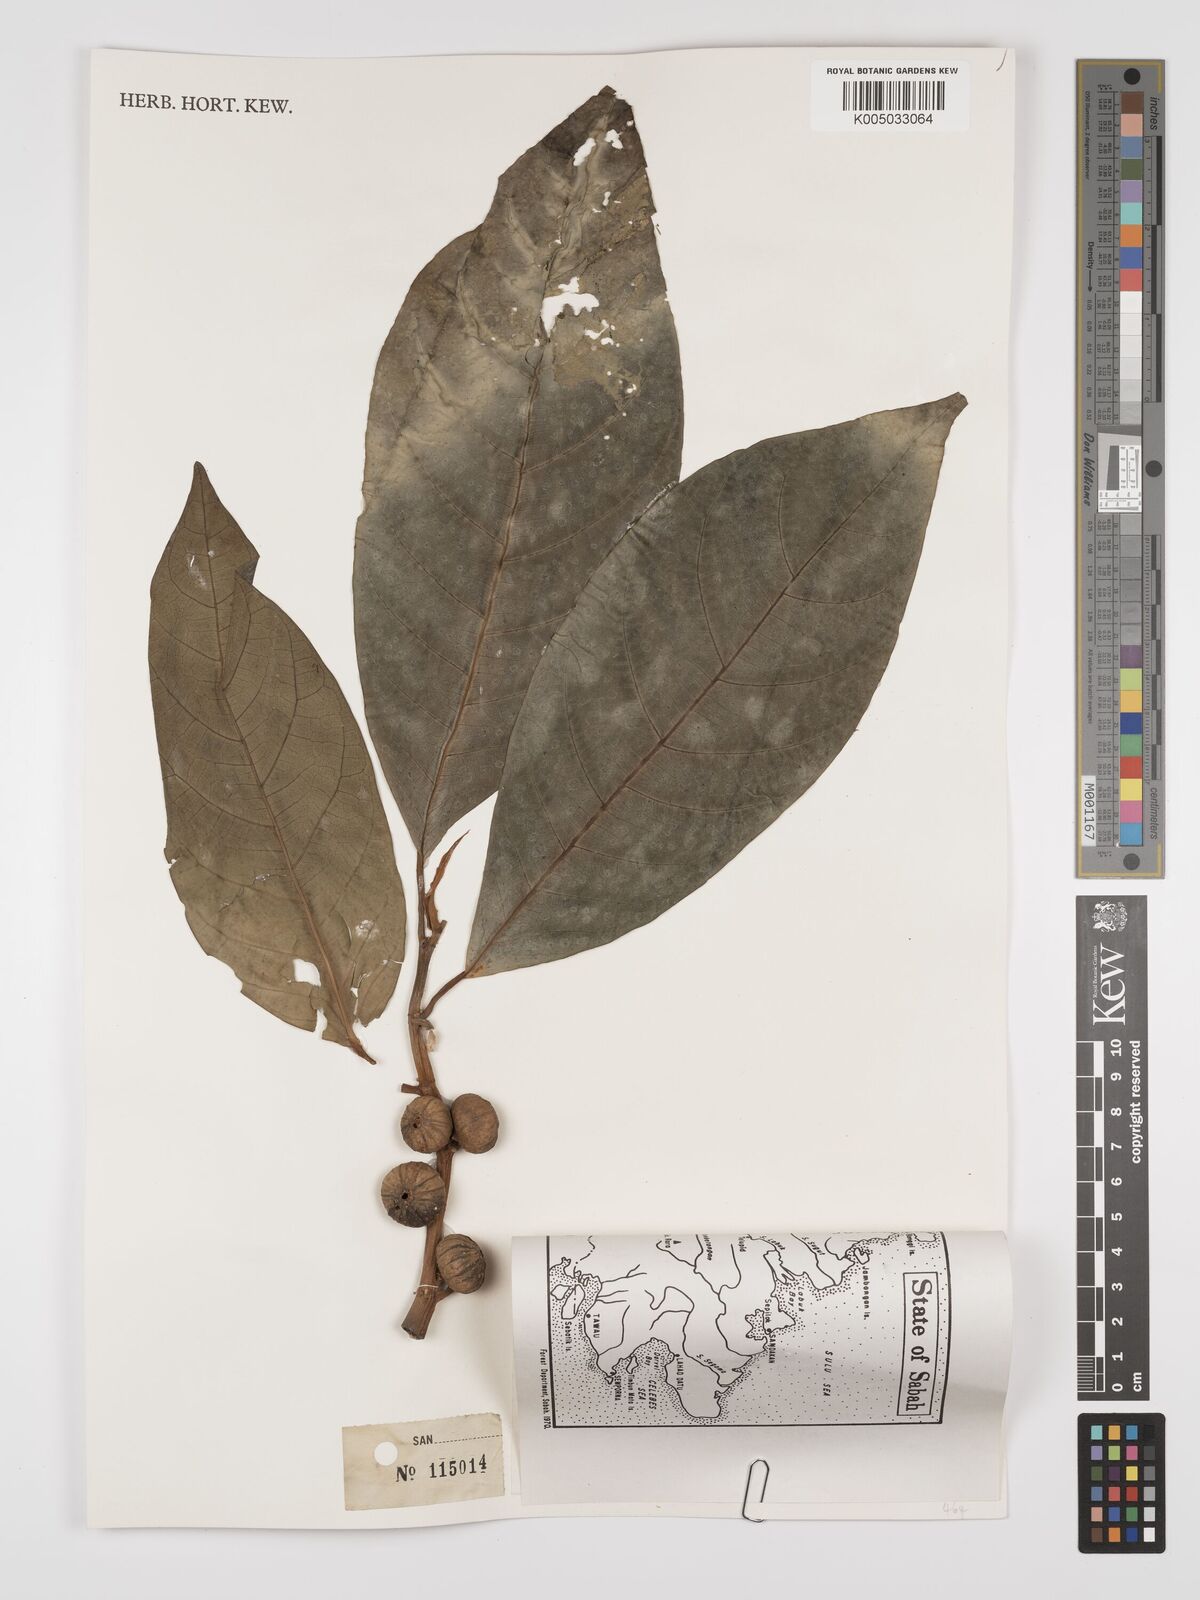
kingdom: Plantae
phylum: Tracheophyta
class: Magnoliopsida
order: Rosales
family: Moraceae
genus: Ficus
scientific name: Ficus septica
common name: Septic fig
